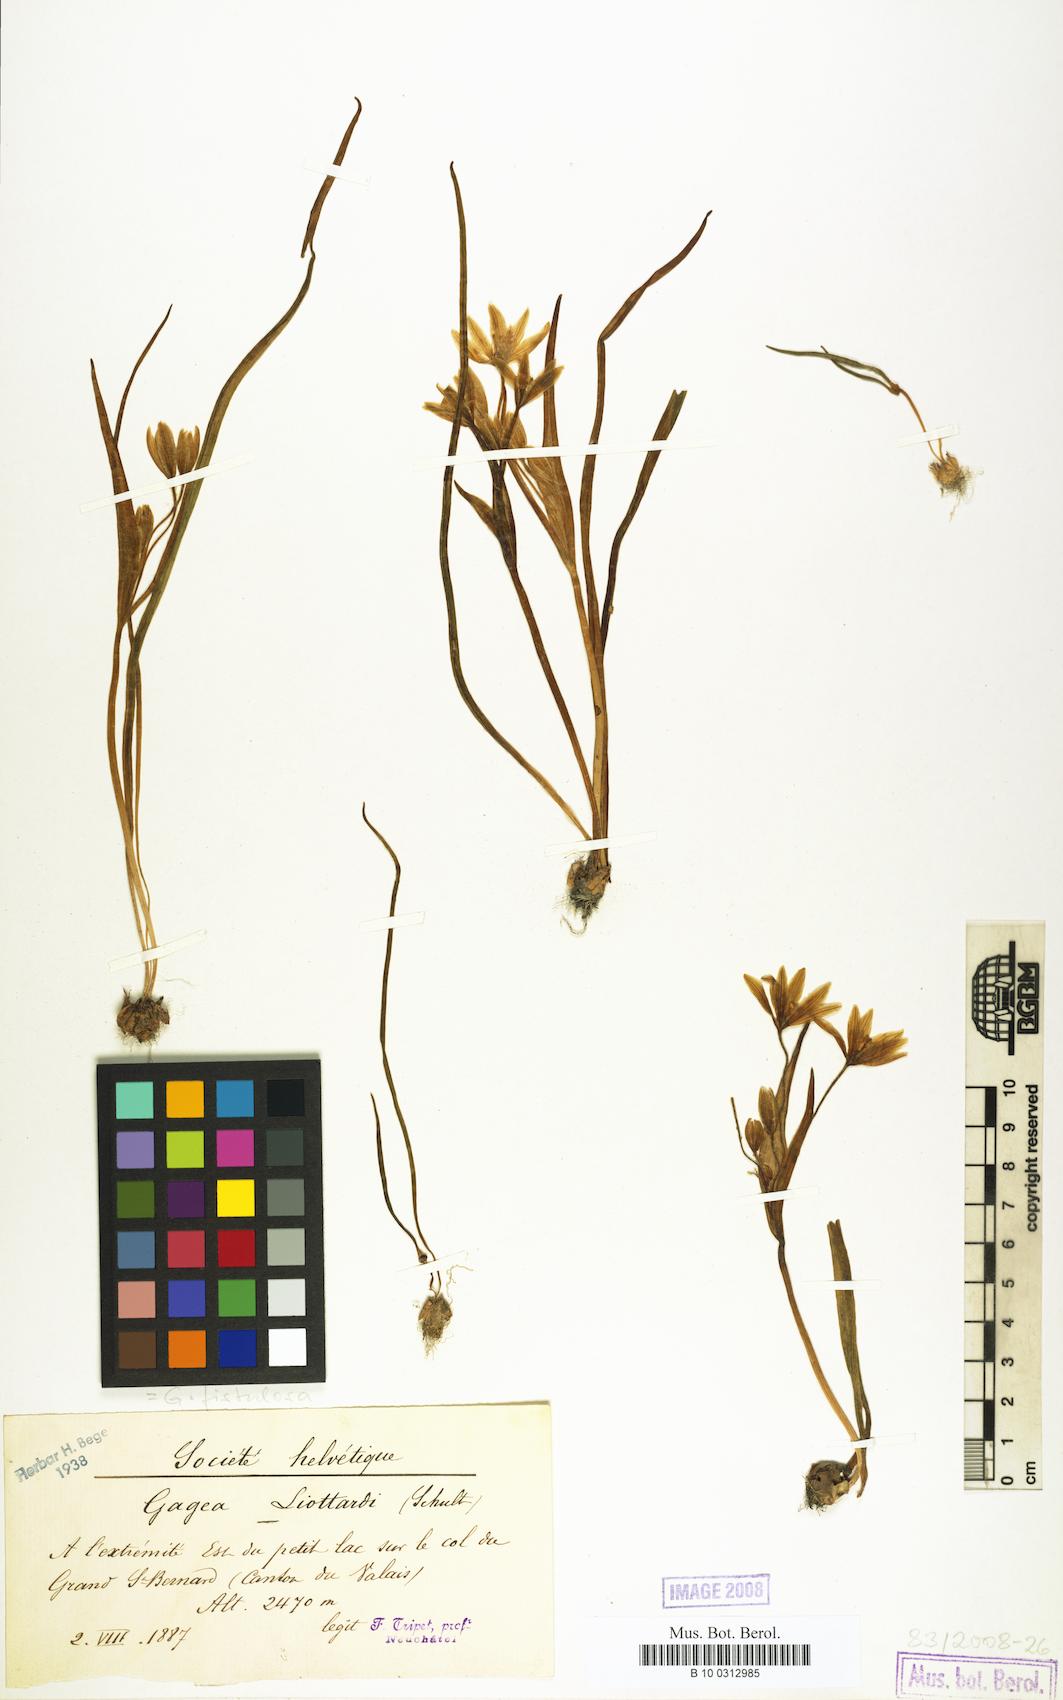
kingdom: Plantae
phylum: Tracheophyta
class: Liliopsida
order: Liliales
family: Liliaceae
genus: Gagea
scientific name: Gagea
